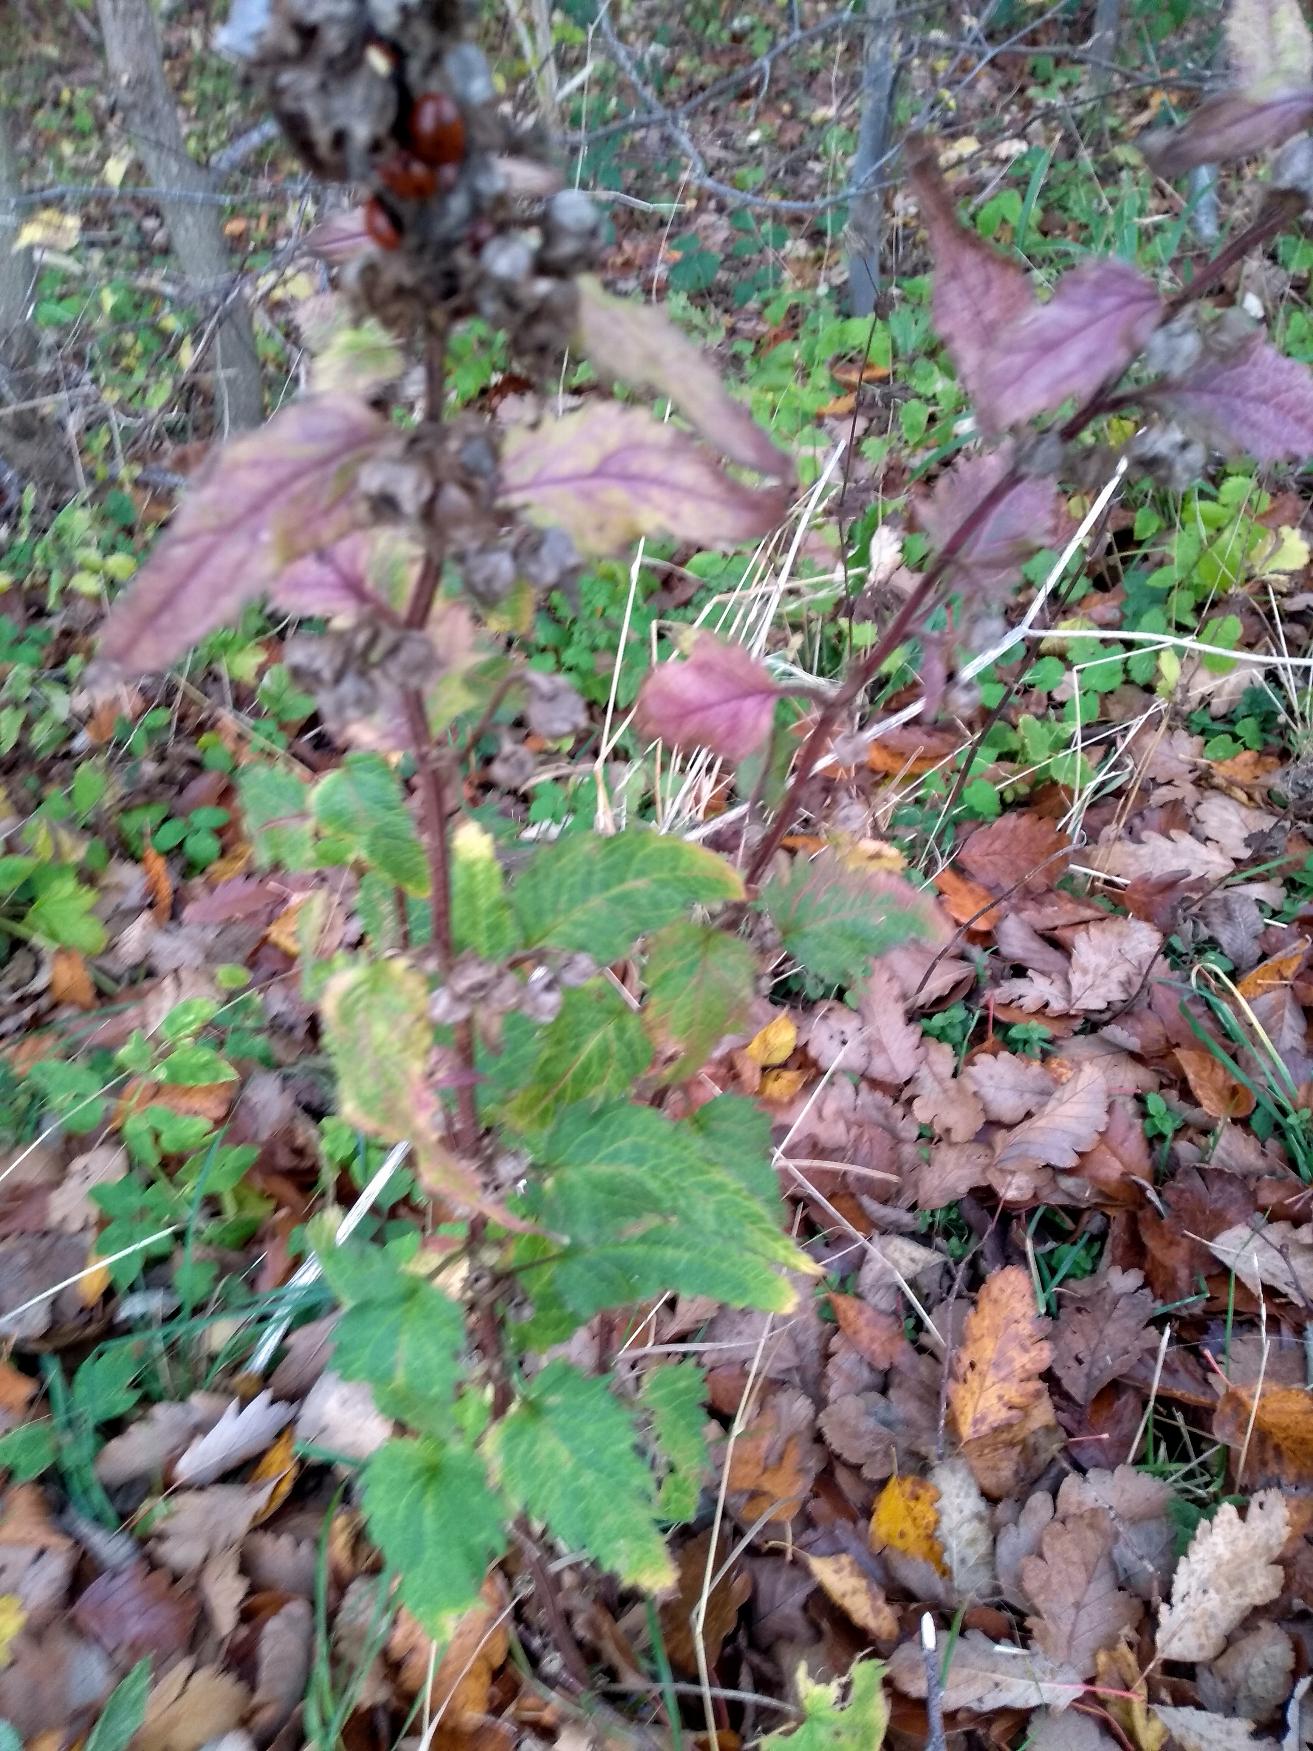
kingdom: Plantae
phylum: Tracheophyta
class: Magnoliopsida
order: Asterales
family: Campanulaceae
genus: Campanula
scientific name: Campanula trachelium
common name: Nælde-klokke
